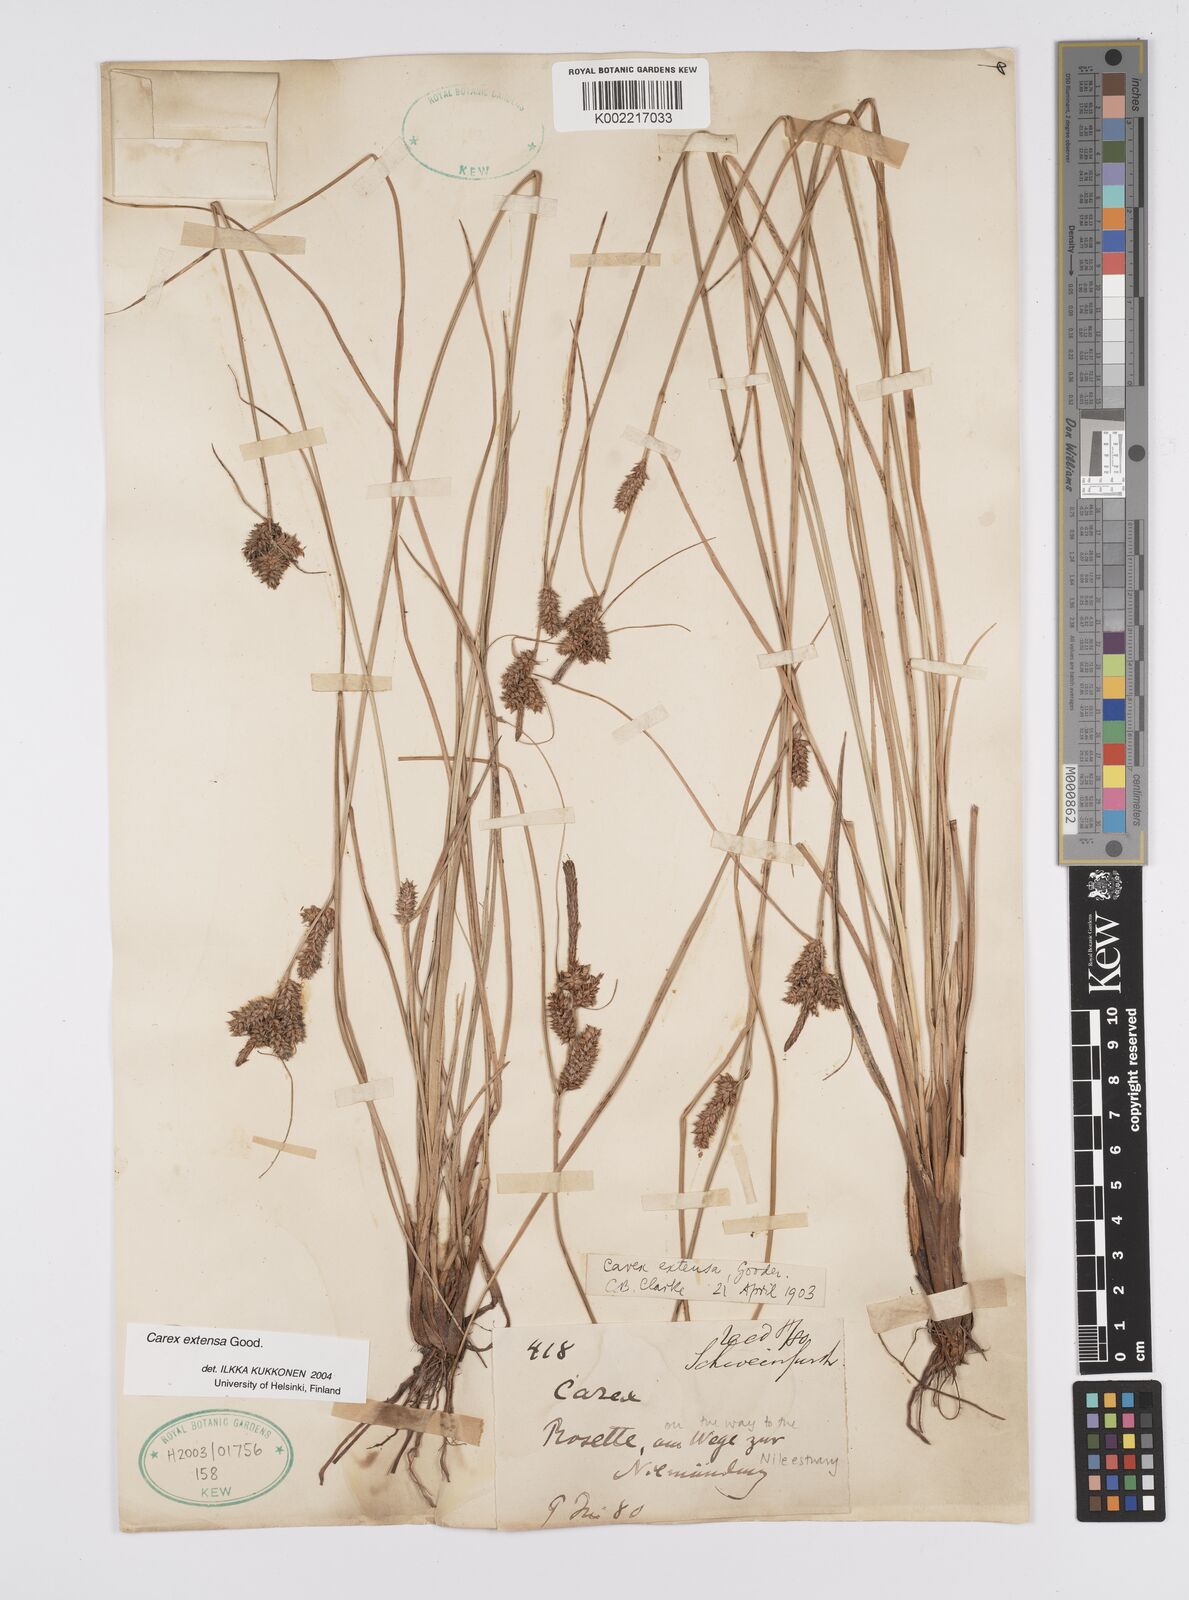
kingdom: Plantae
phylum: Tracheophyta
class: Liliopsida
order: Poales
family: Cyperaceae
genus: Carex
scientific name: Carex extensa
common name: Long-bracted sedge
